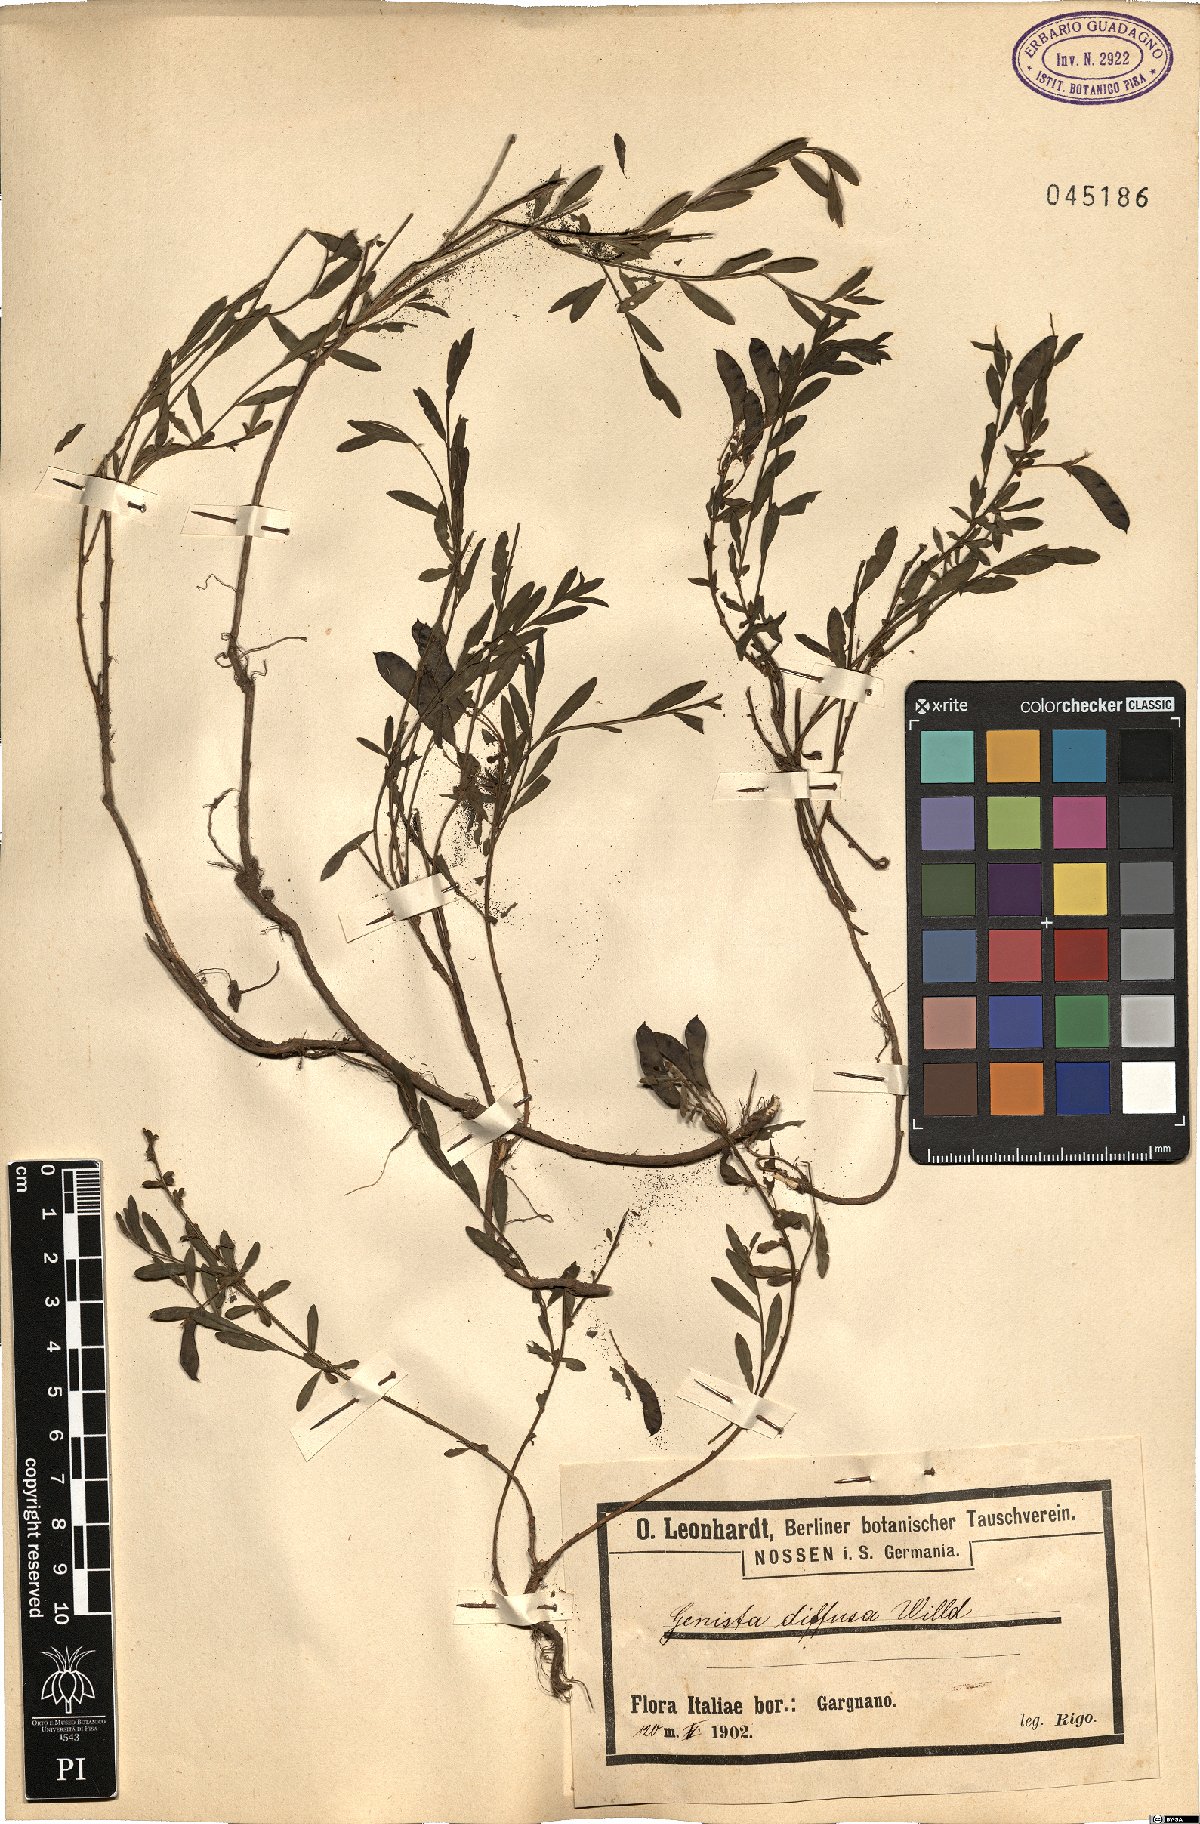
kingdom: Plantae
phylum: Tracheophyta
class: Magnoliopsida
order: Fabales
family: Fabaceae
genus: Cytisus
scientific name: Cytisus decumbens
